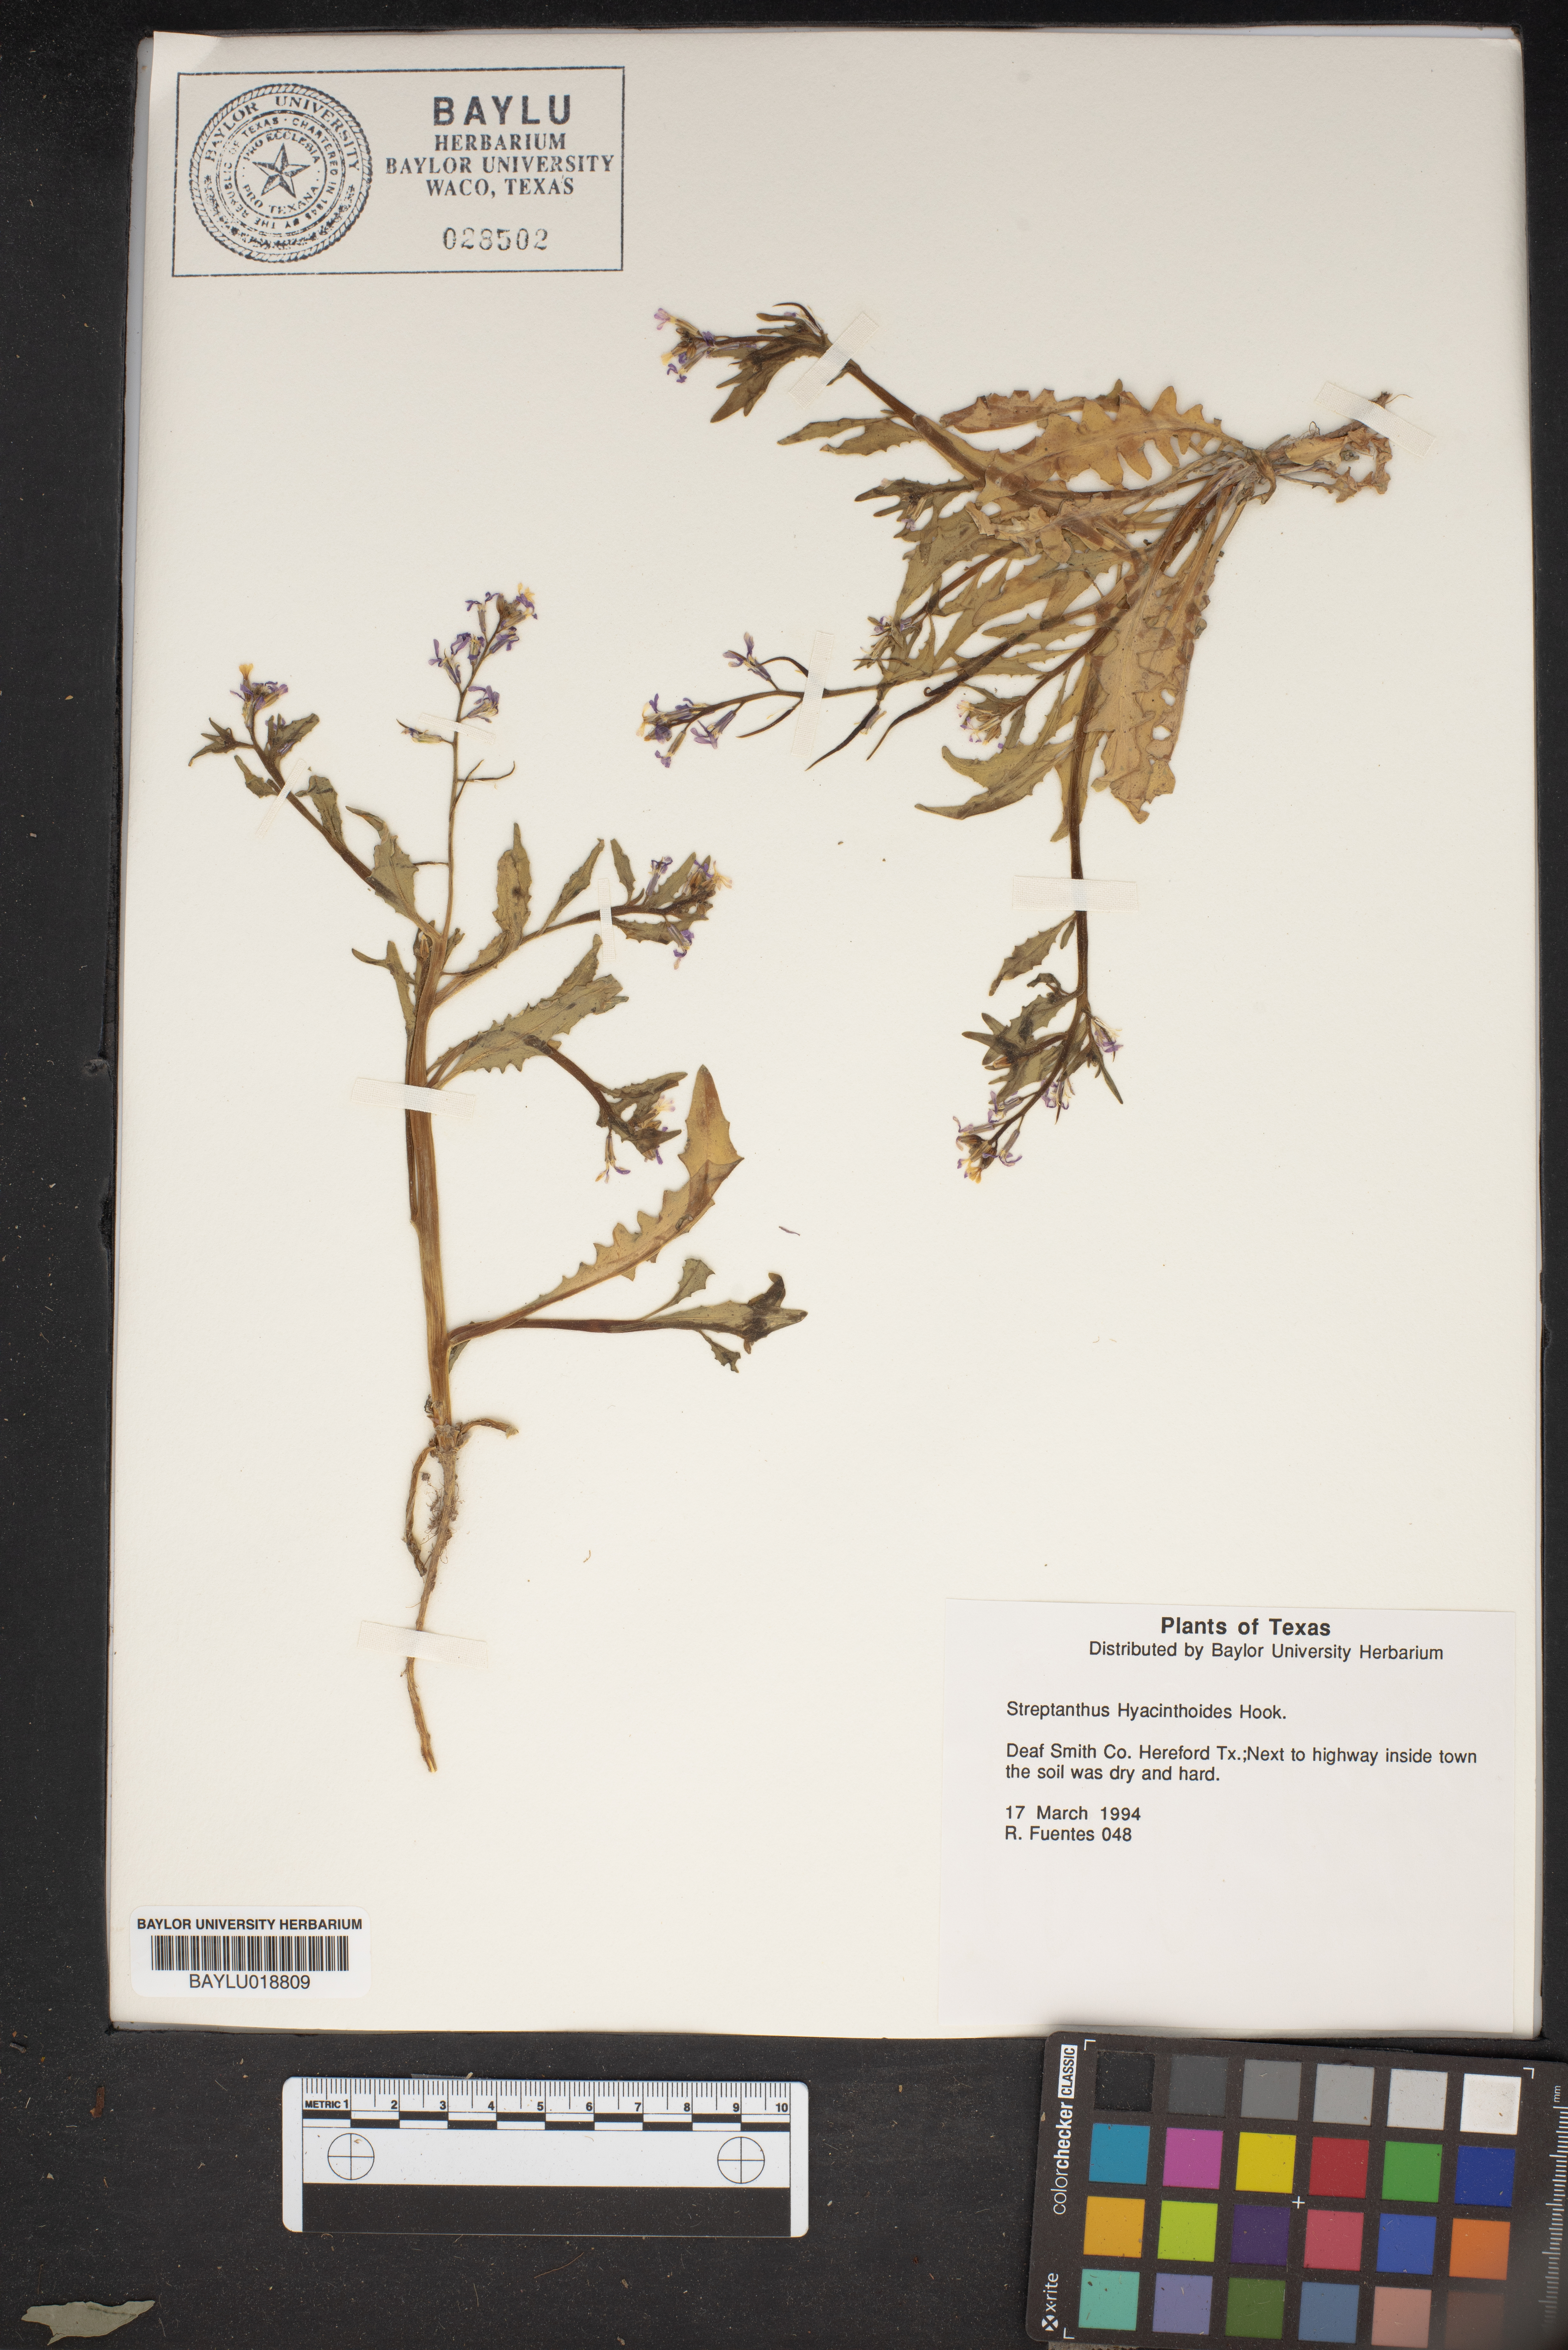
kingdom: Plantae
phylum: Tracheophyta
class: Magnoliopsida
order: Brassicales
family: Brassicaceae
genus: Streptanthus
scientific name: Streptanthus hyacinthoides
